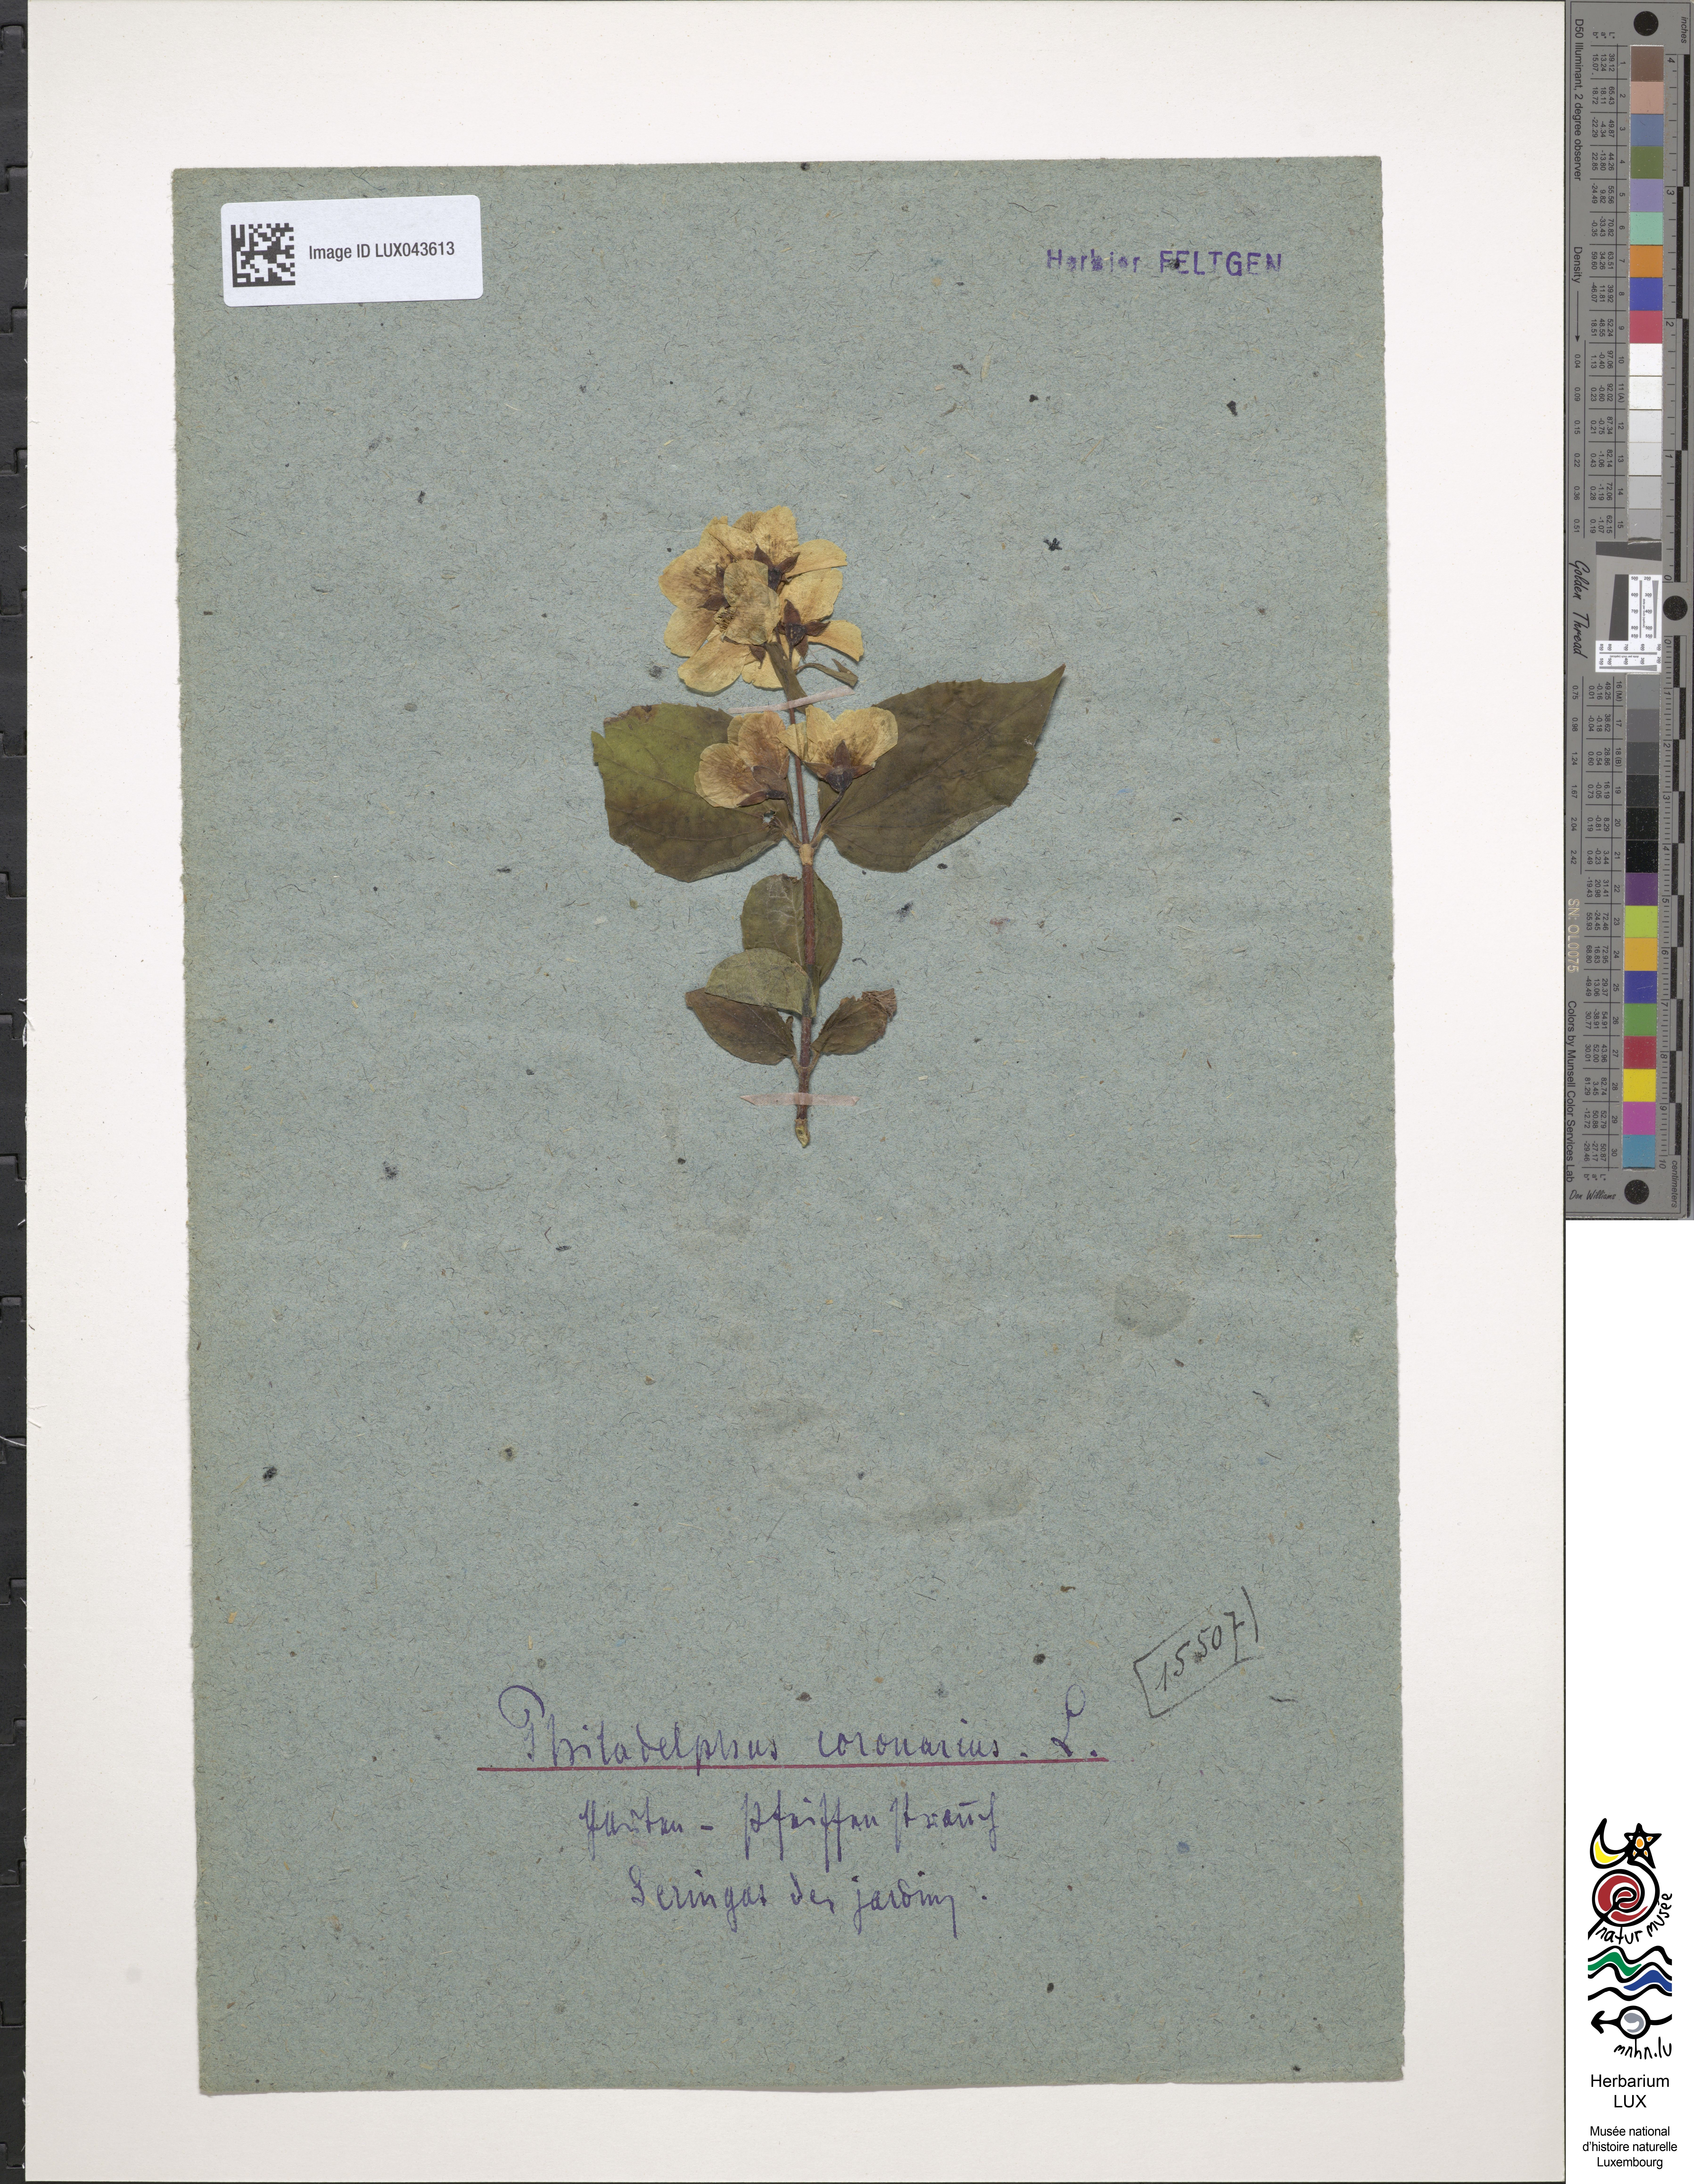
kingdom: Plantae
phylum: Tracheophyta
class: Magnoliopsida
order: Cornales
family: Hydrangeaceae
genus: Philadelphus
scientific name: Philadelphus coronarius
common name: Mock orange
